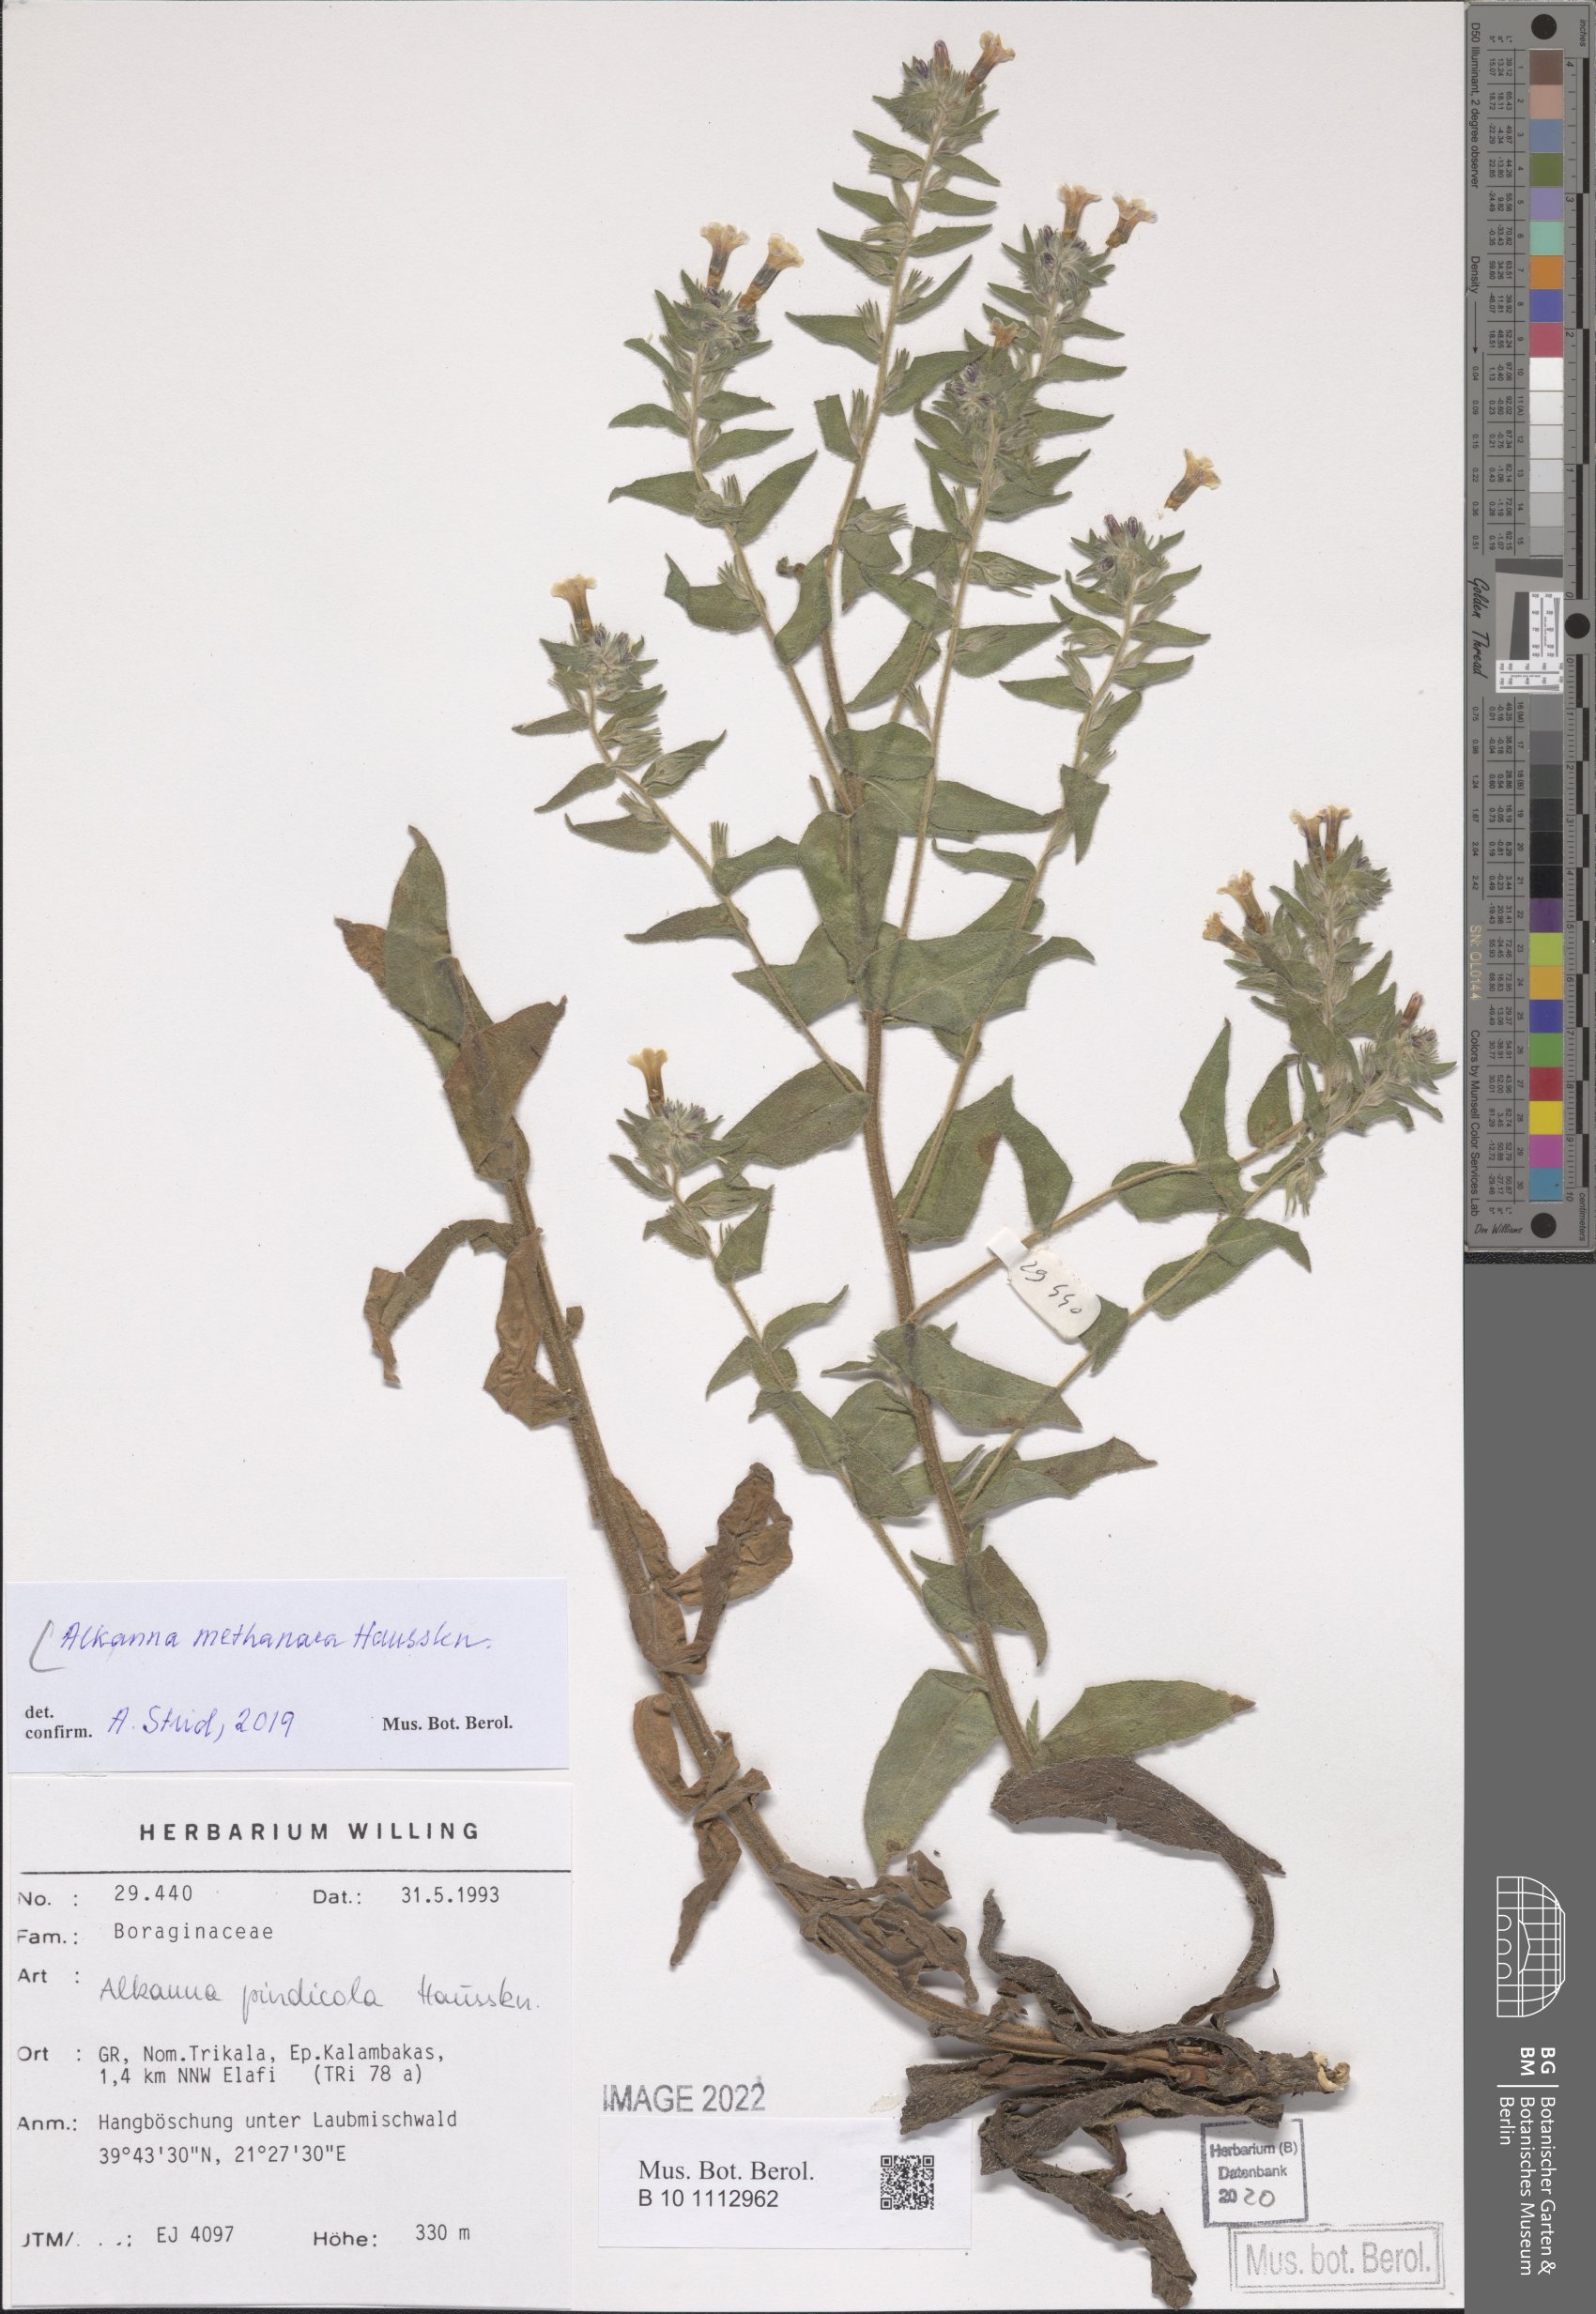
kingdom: Plantae
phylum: Tracheophyta
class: Magnoliopsida
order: Boraginales
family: Boraginaceae
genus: Alkanna
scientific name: Alkanna methanaea
